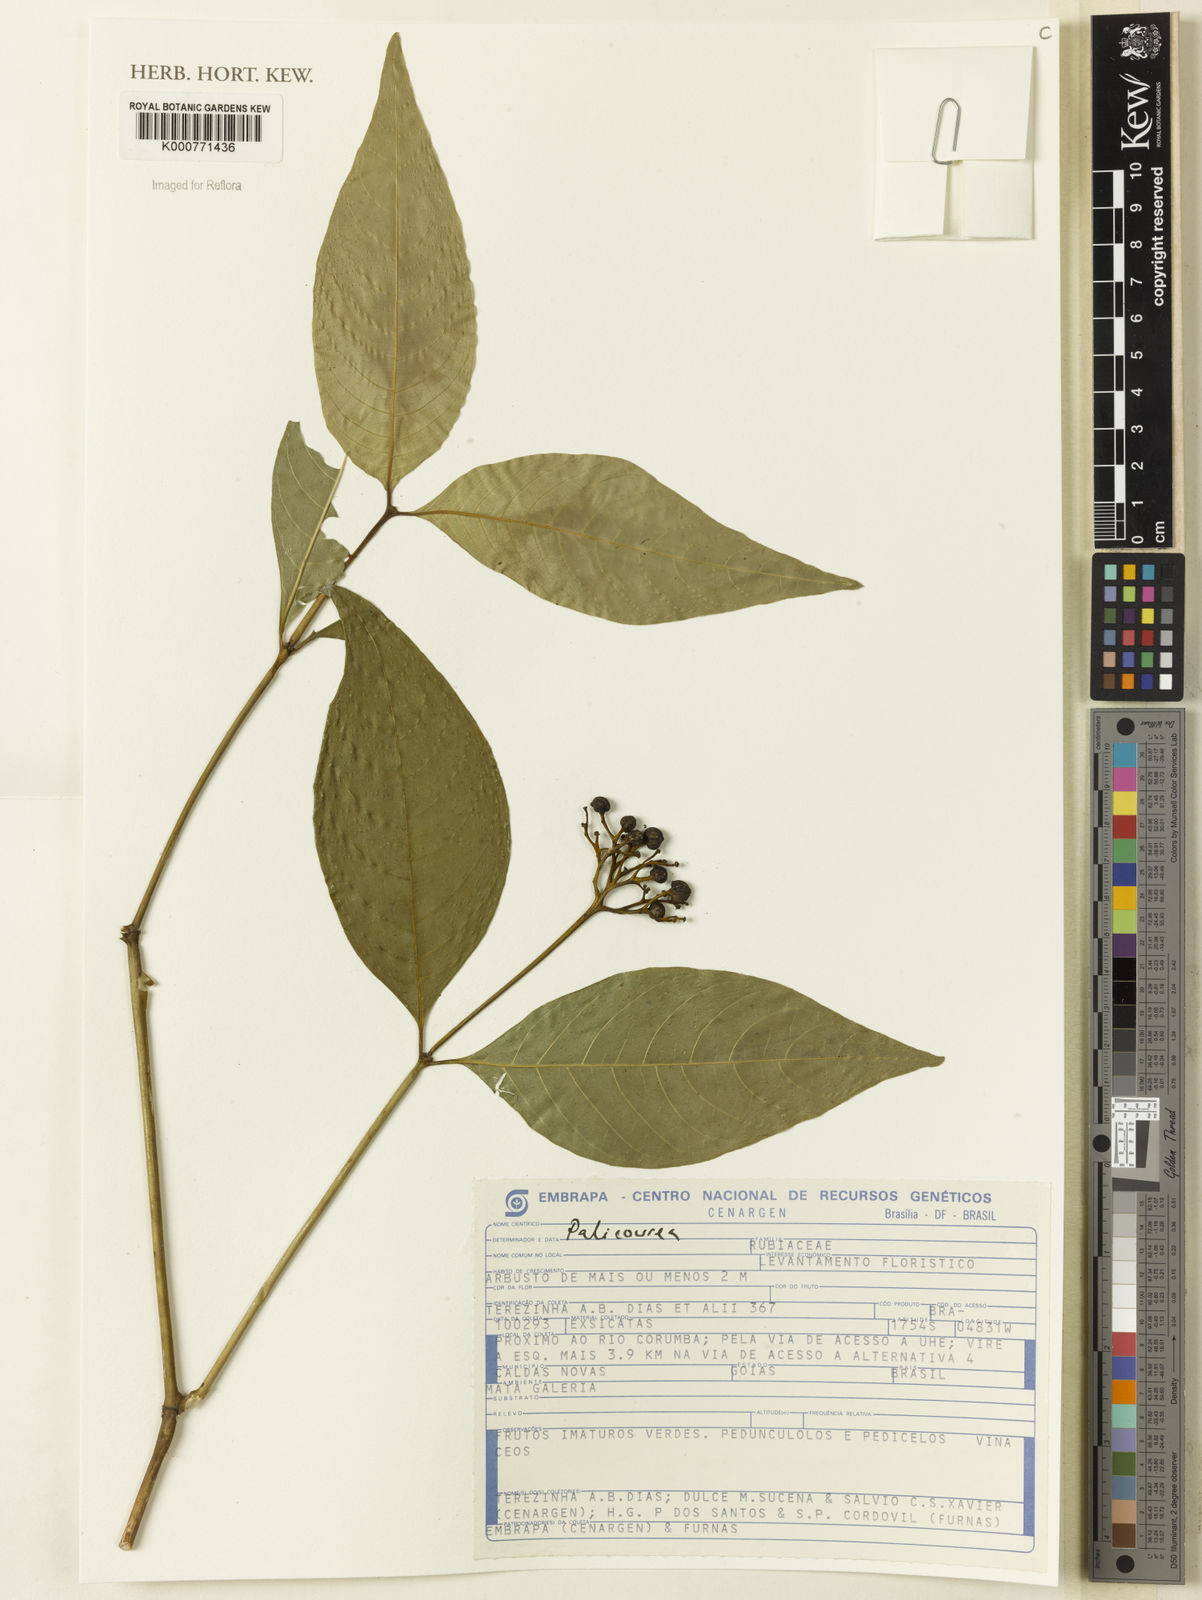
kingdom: Plantae
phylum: Tracheophyta
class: Magnoliopsida
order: Gentianales
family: Rubiaceae
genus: Palicourea
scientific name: Palicourea
